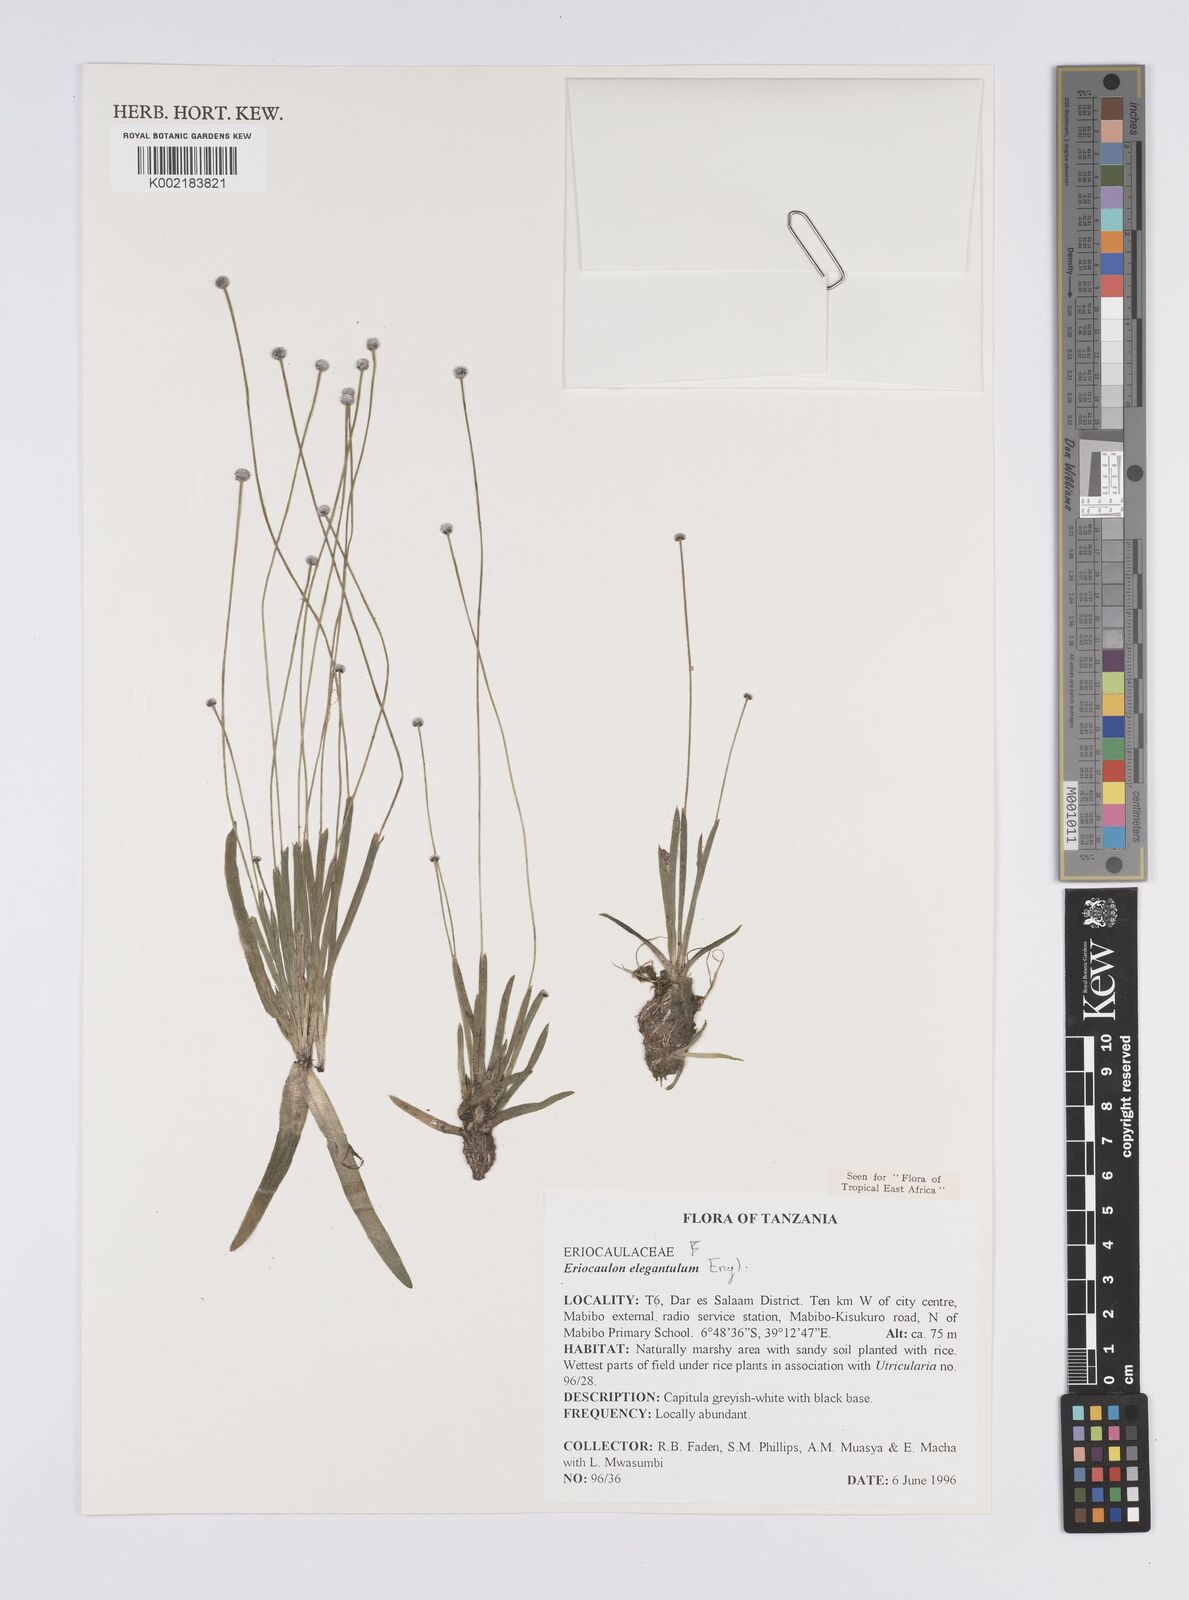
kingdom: Plantae
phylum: Tracheophyta
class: Liliopsida
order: Poales
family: Eriocaulaceae
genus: Eriocaulon
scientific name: Eriocaulon elegantulum
